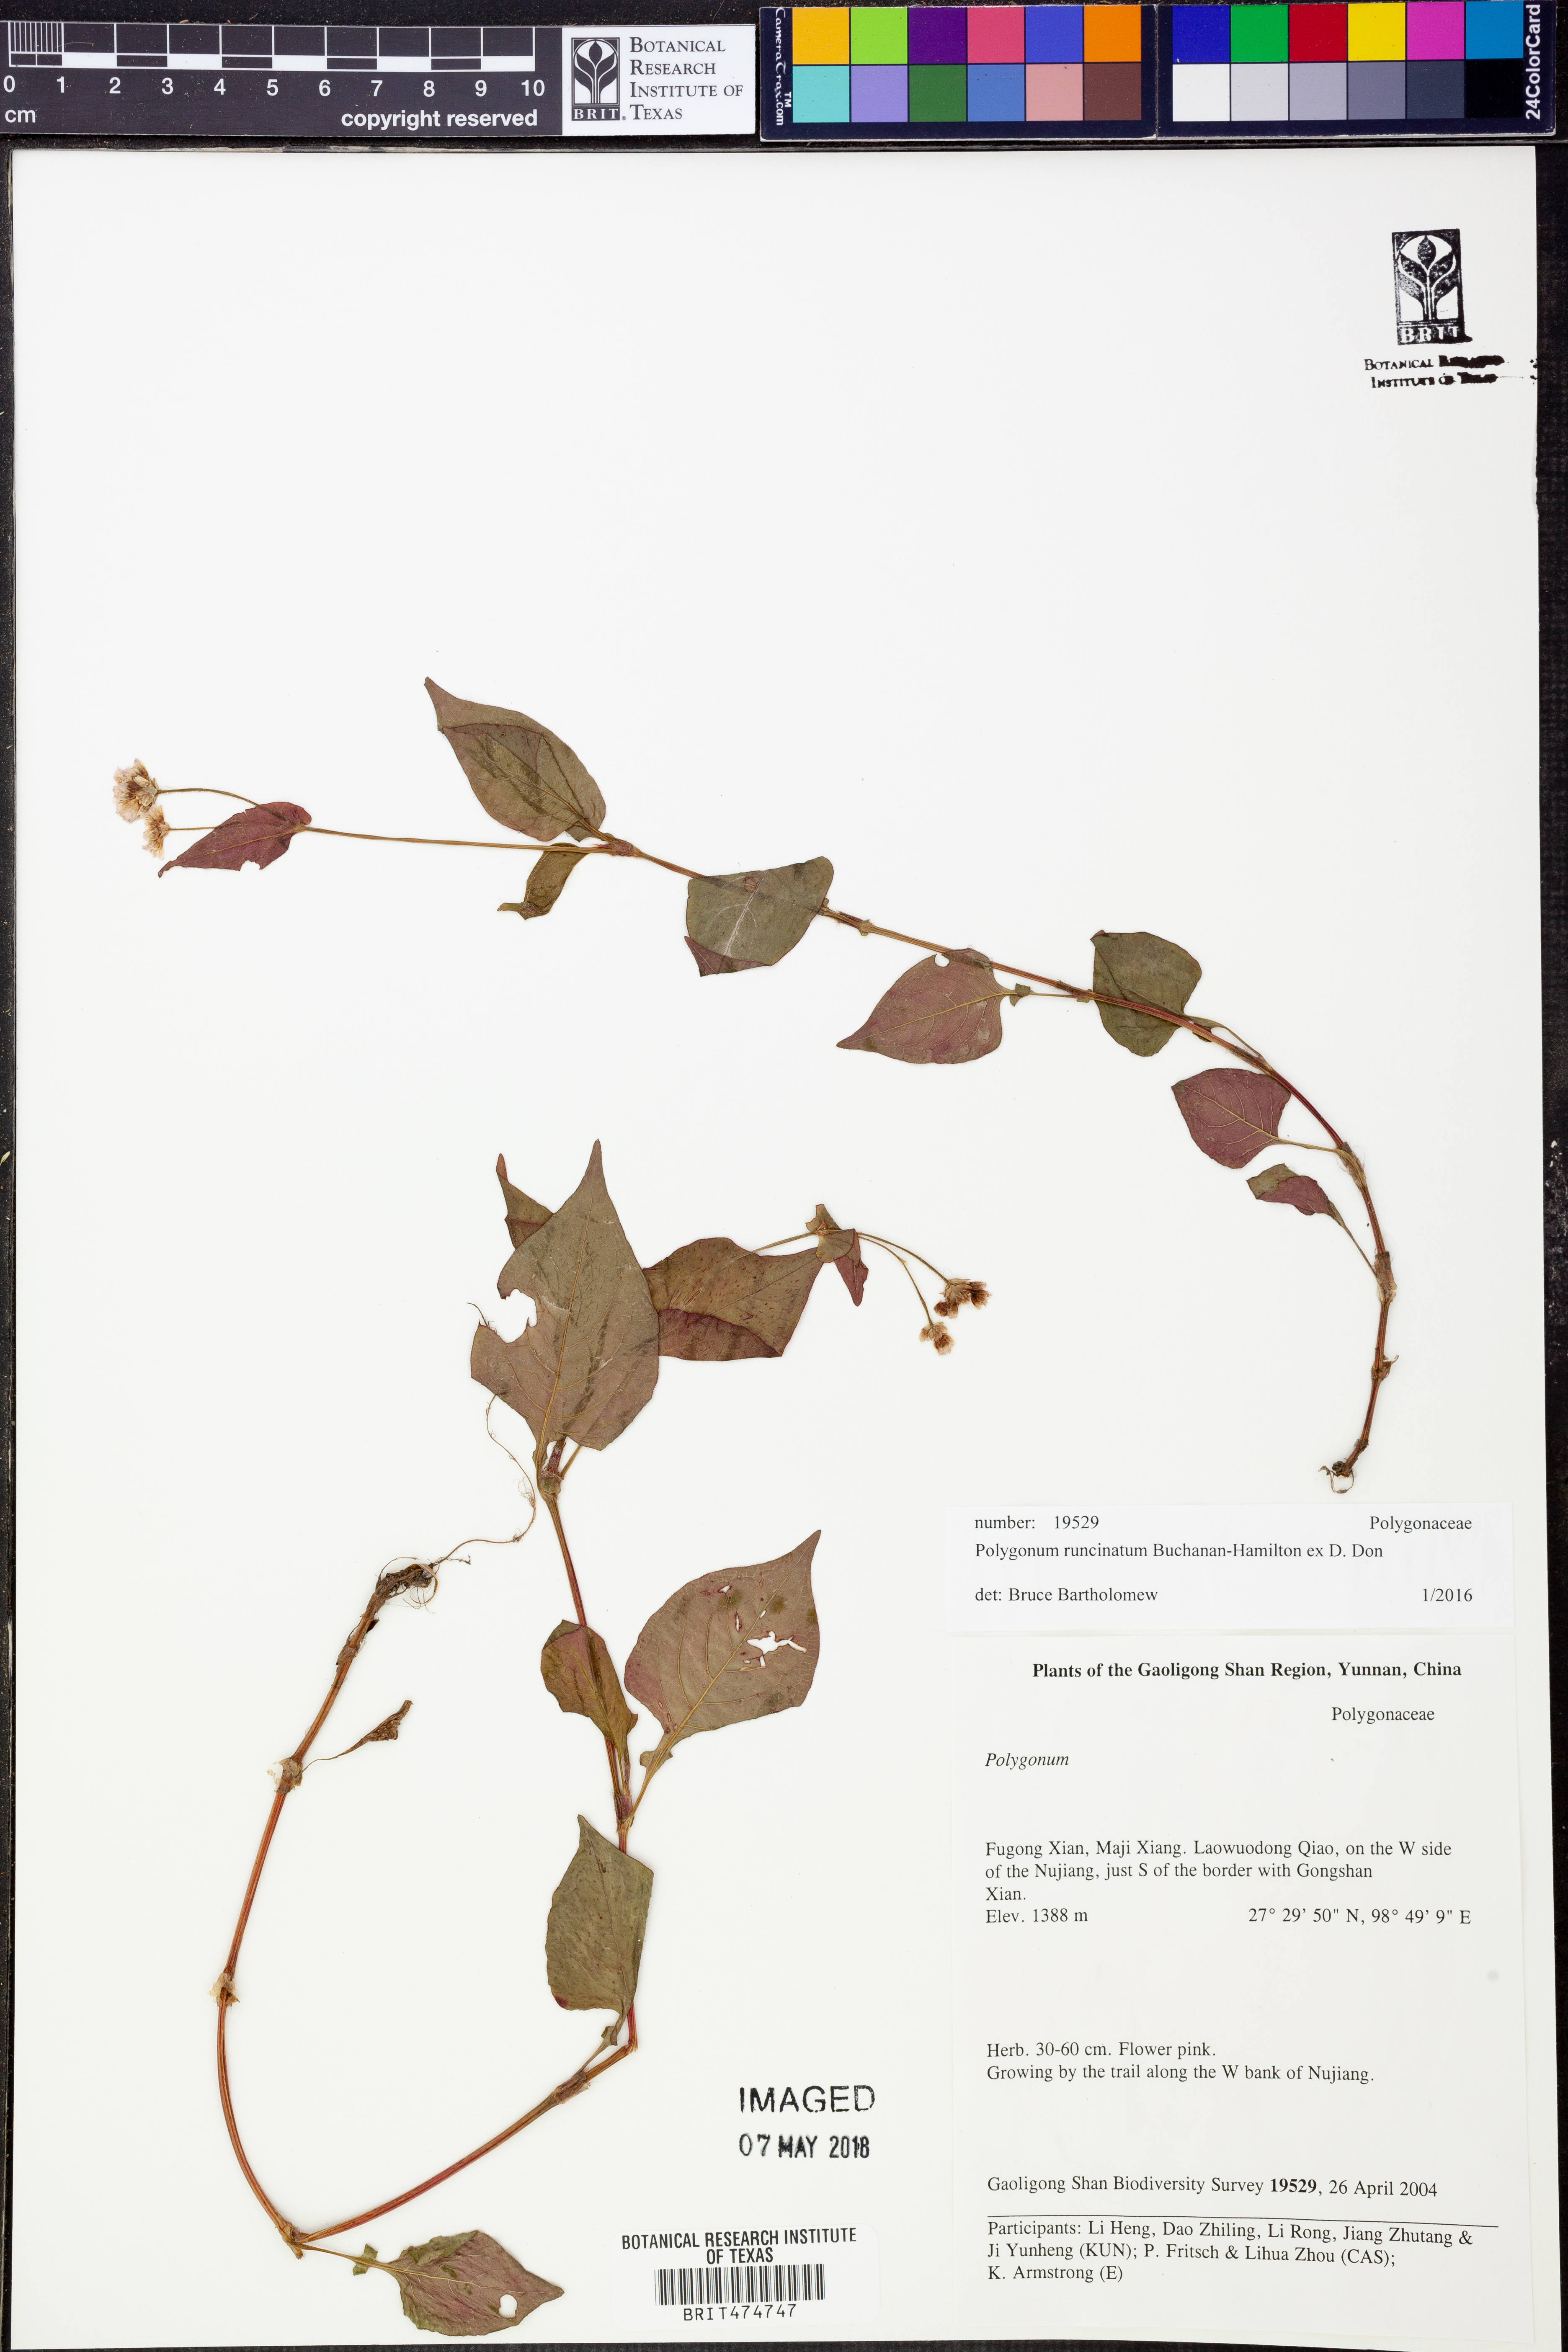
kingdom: Plantae
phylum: Tracheophyta
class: Magnoliopsida
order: Caryophyllales
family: Polygonaceae
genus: Persicaria
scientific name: Persicaria runcinata
